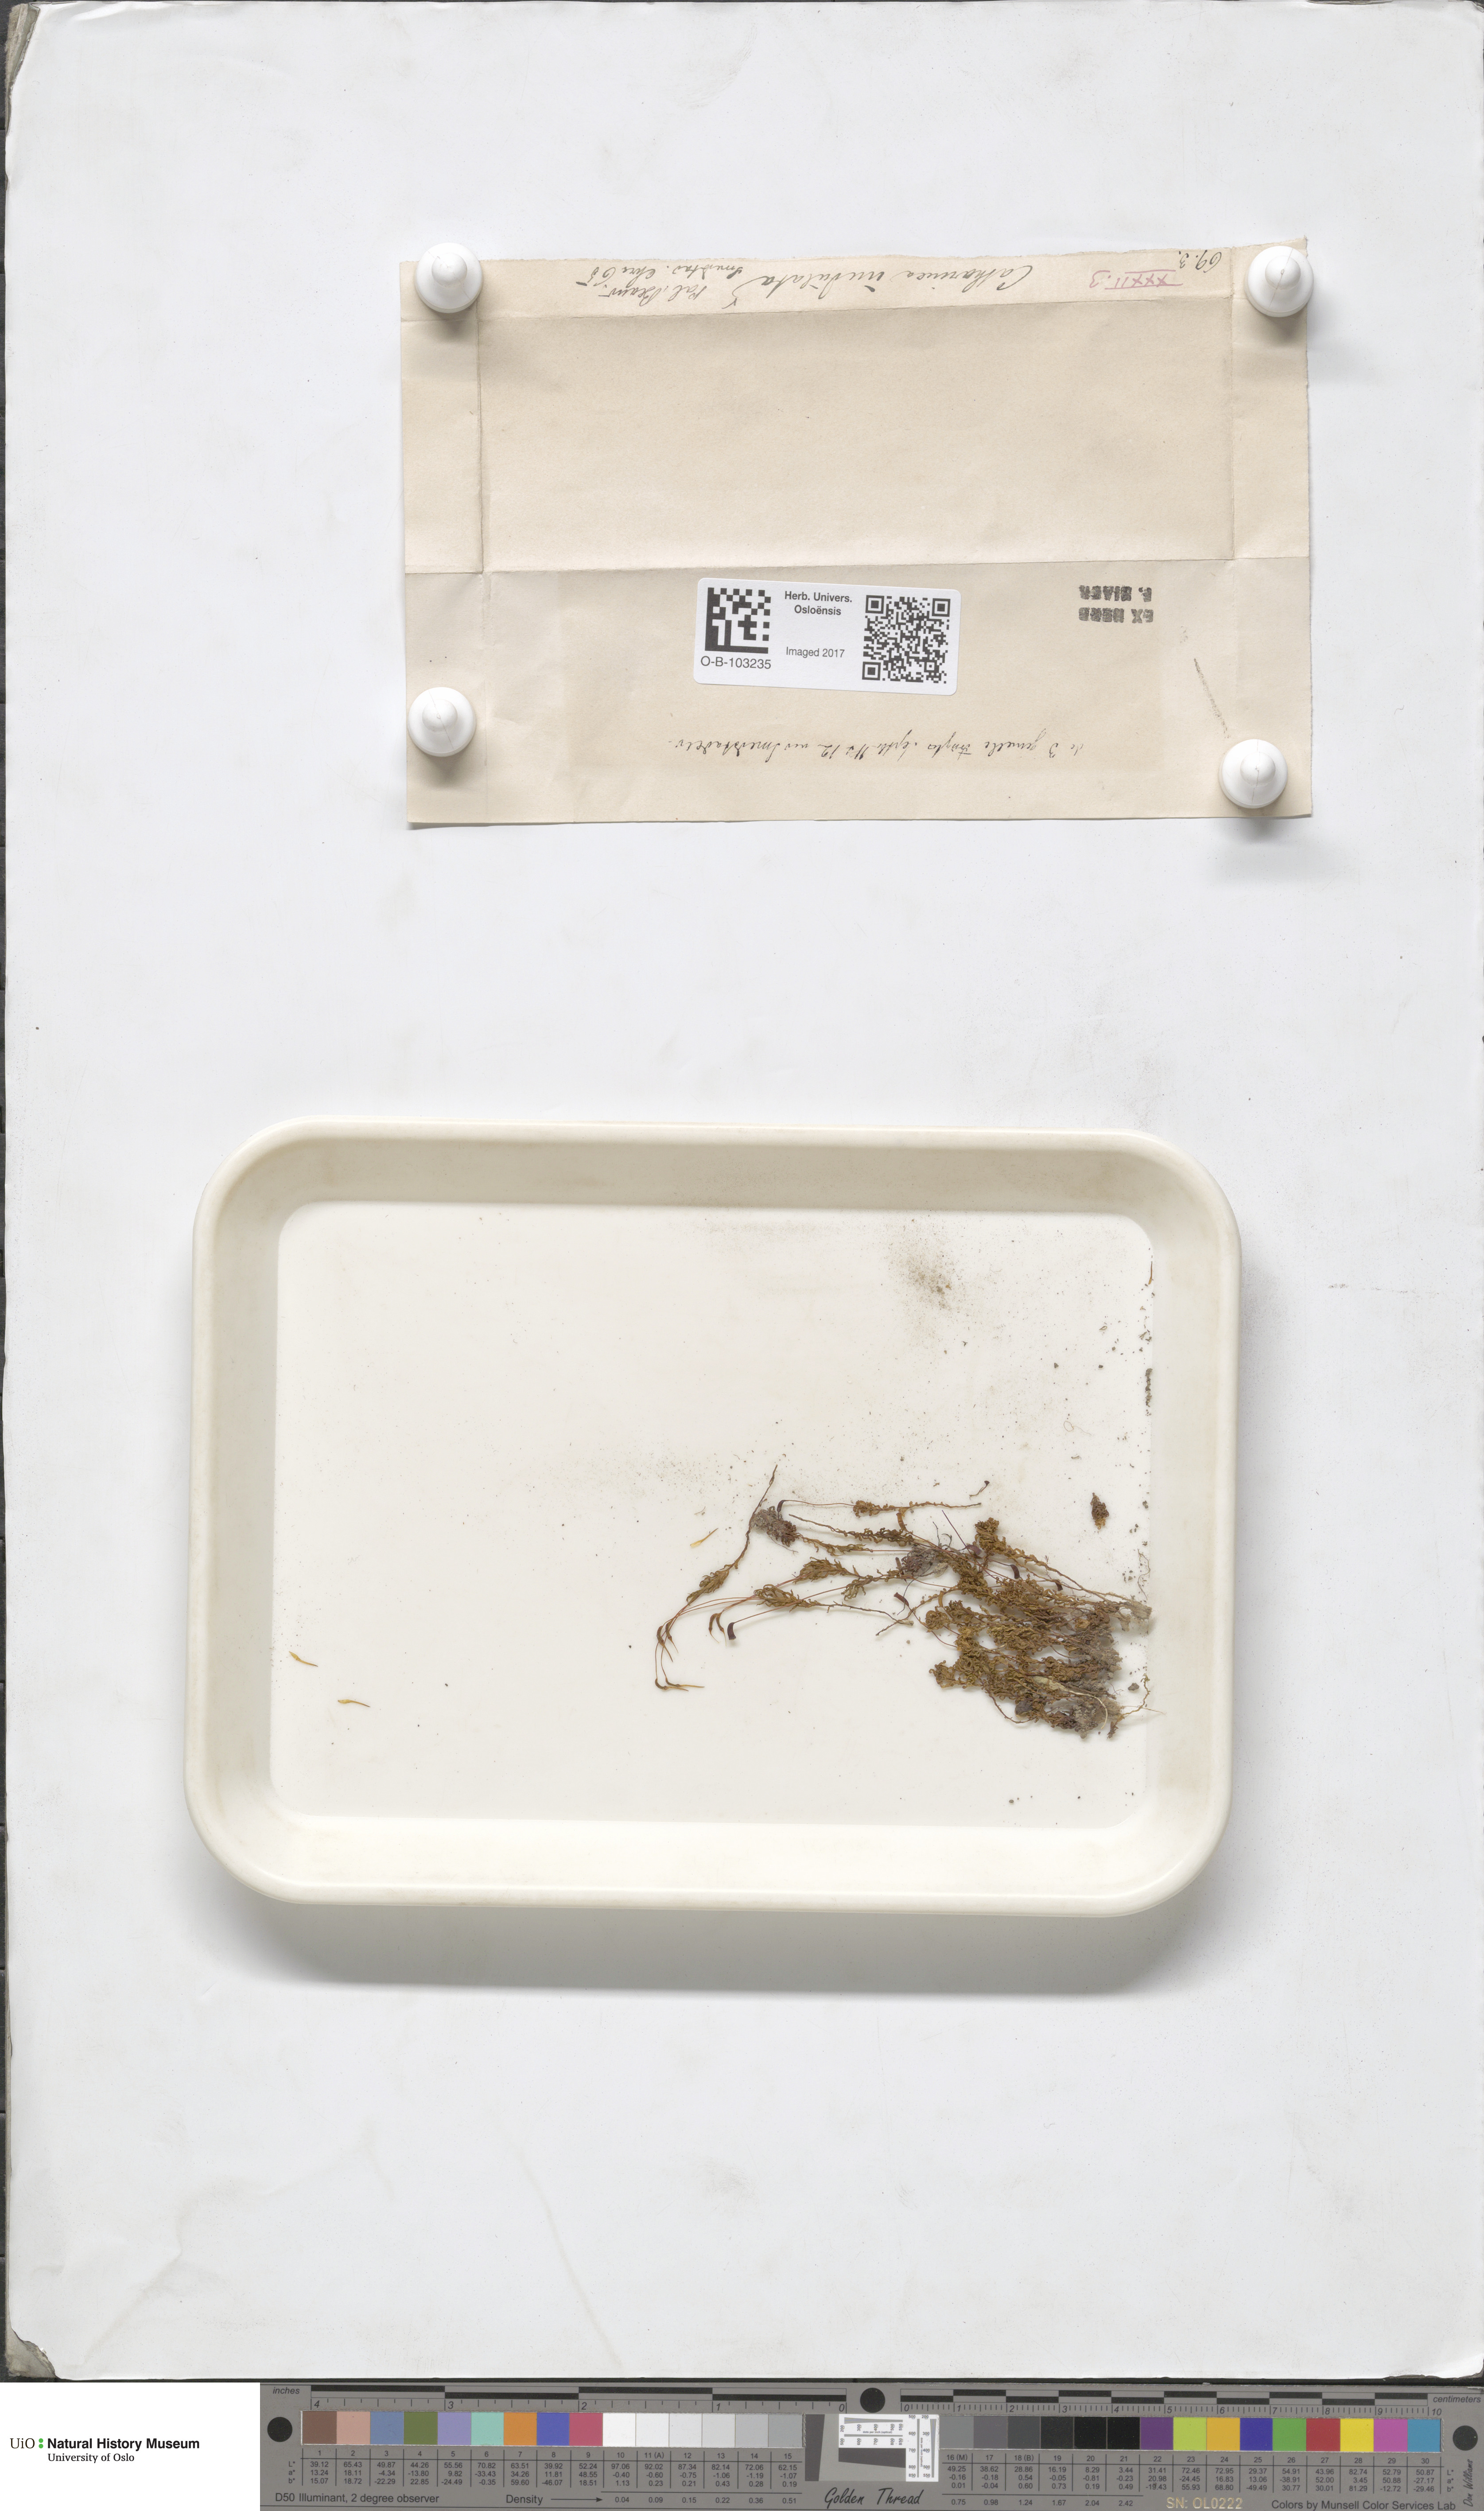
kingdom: Plantae
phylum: Bryophyta
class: Polytrichopsida
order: Polytrichales
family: Polytrichaceae
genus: Atrichum
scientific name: Atrichum undulatum
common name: Common smoothcap
